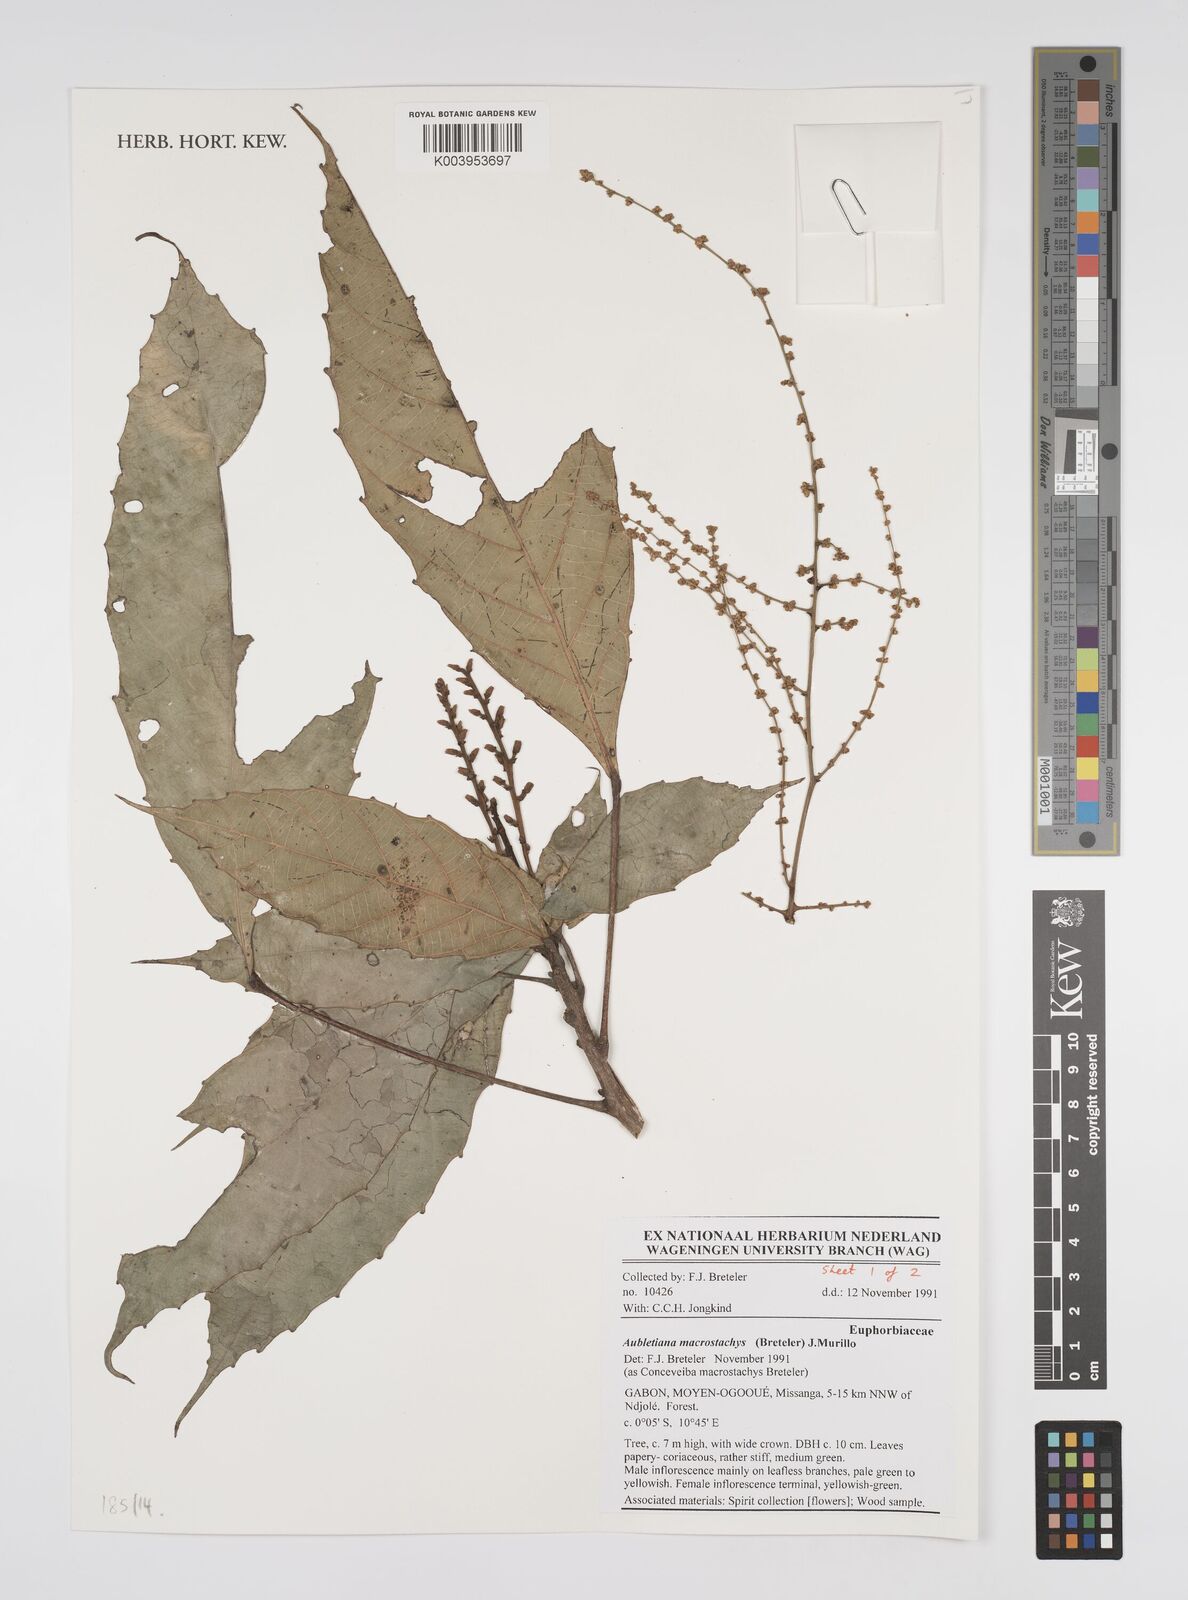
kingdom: Plantae
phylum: Tracheophyta
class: Magnoliopsida
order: Malpighiales
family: Euphorbiaceae
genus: Aubletiana
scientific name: Aubletiana macrostachys
